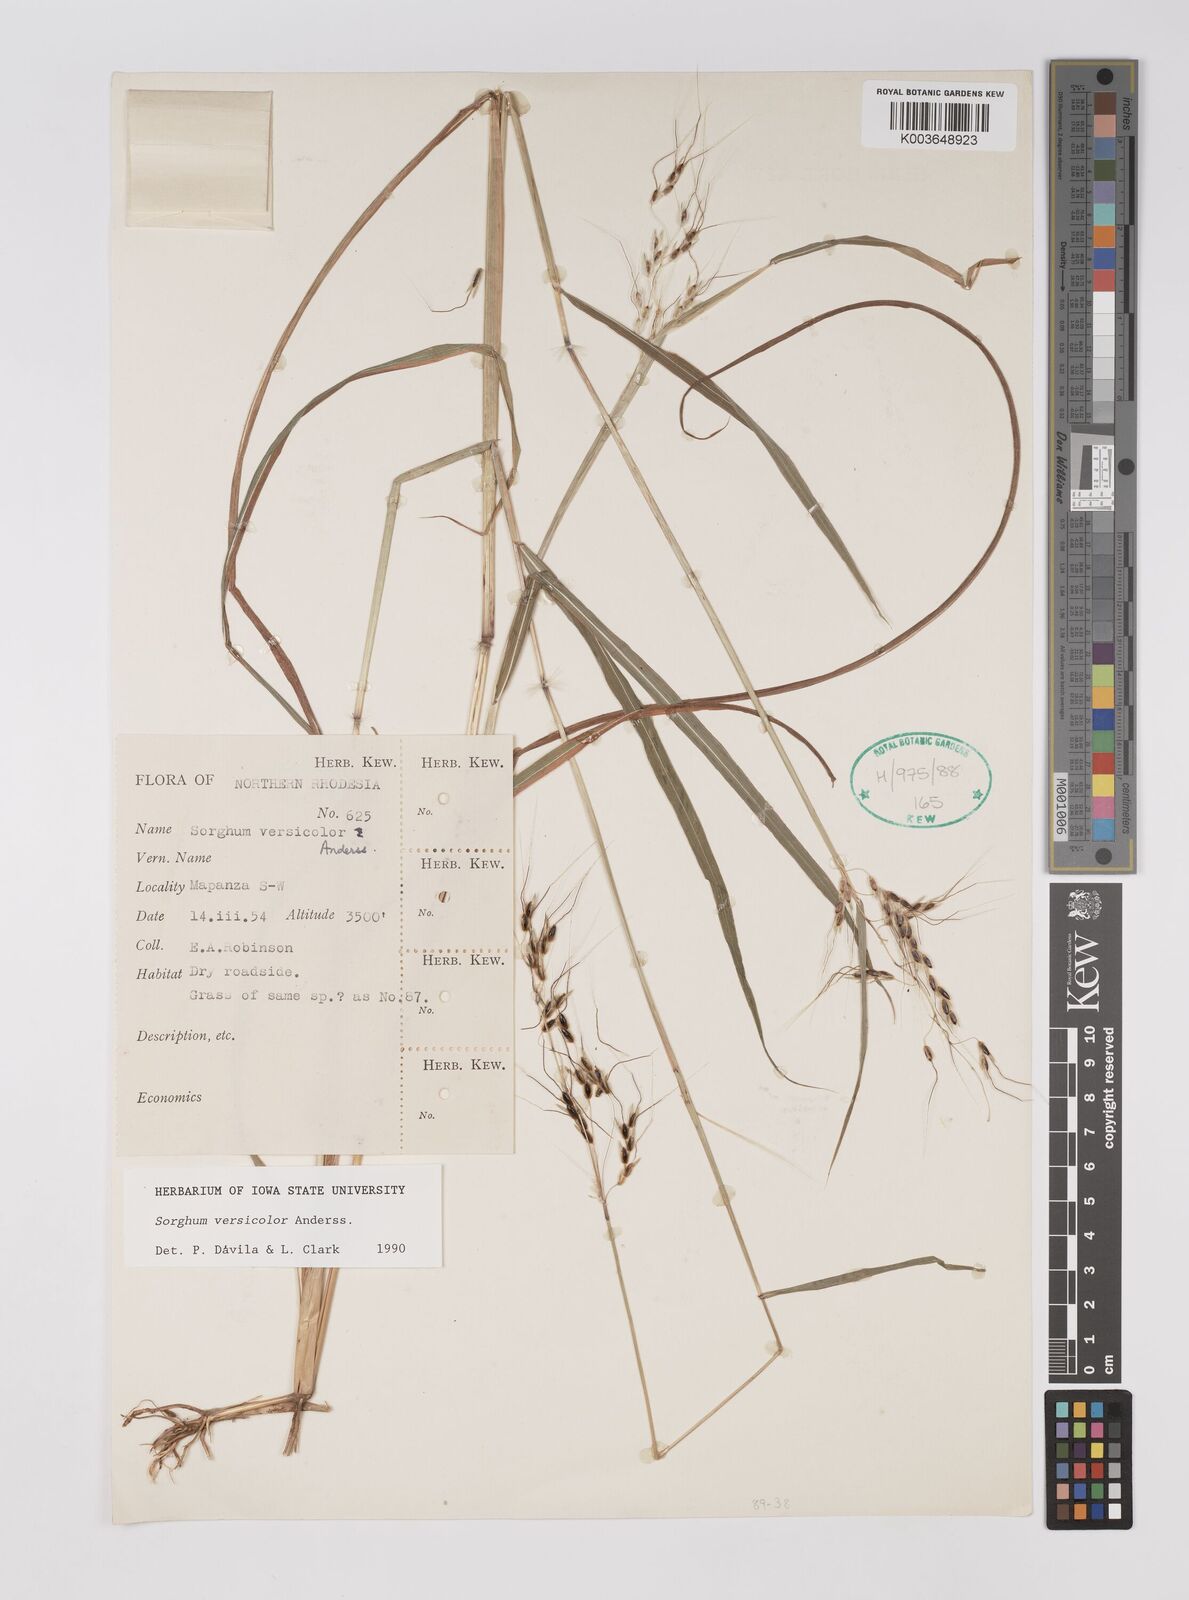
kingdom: Plantae
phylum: Tracheophyta
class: Liliopsida
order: Poales
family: Poaceae
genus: Sarga
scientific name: Sarga versicolor
